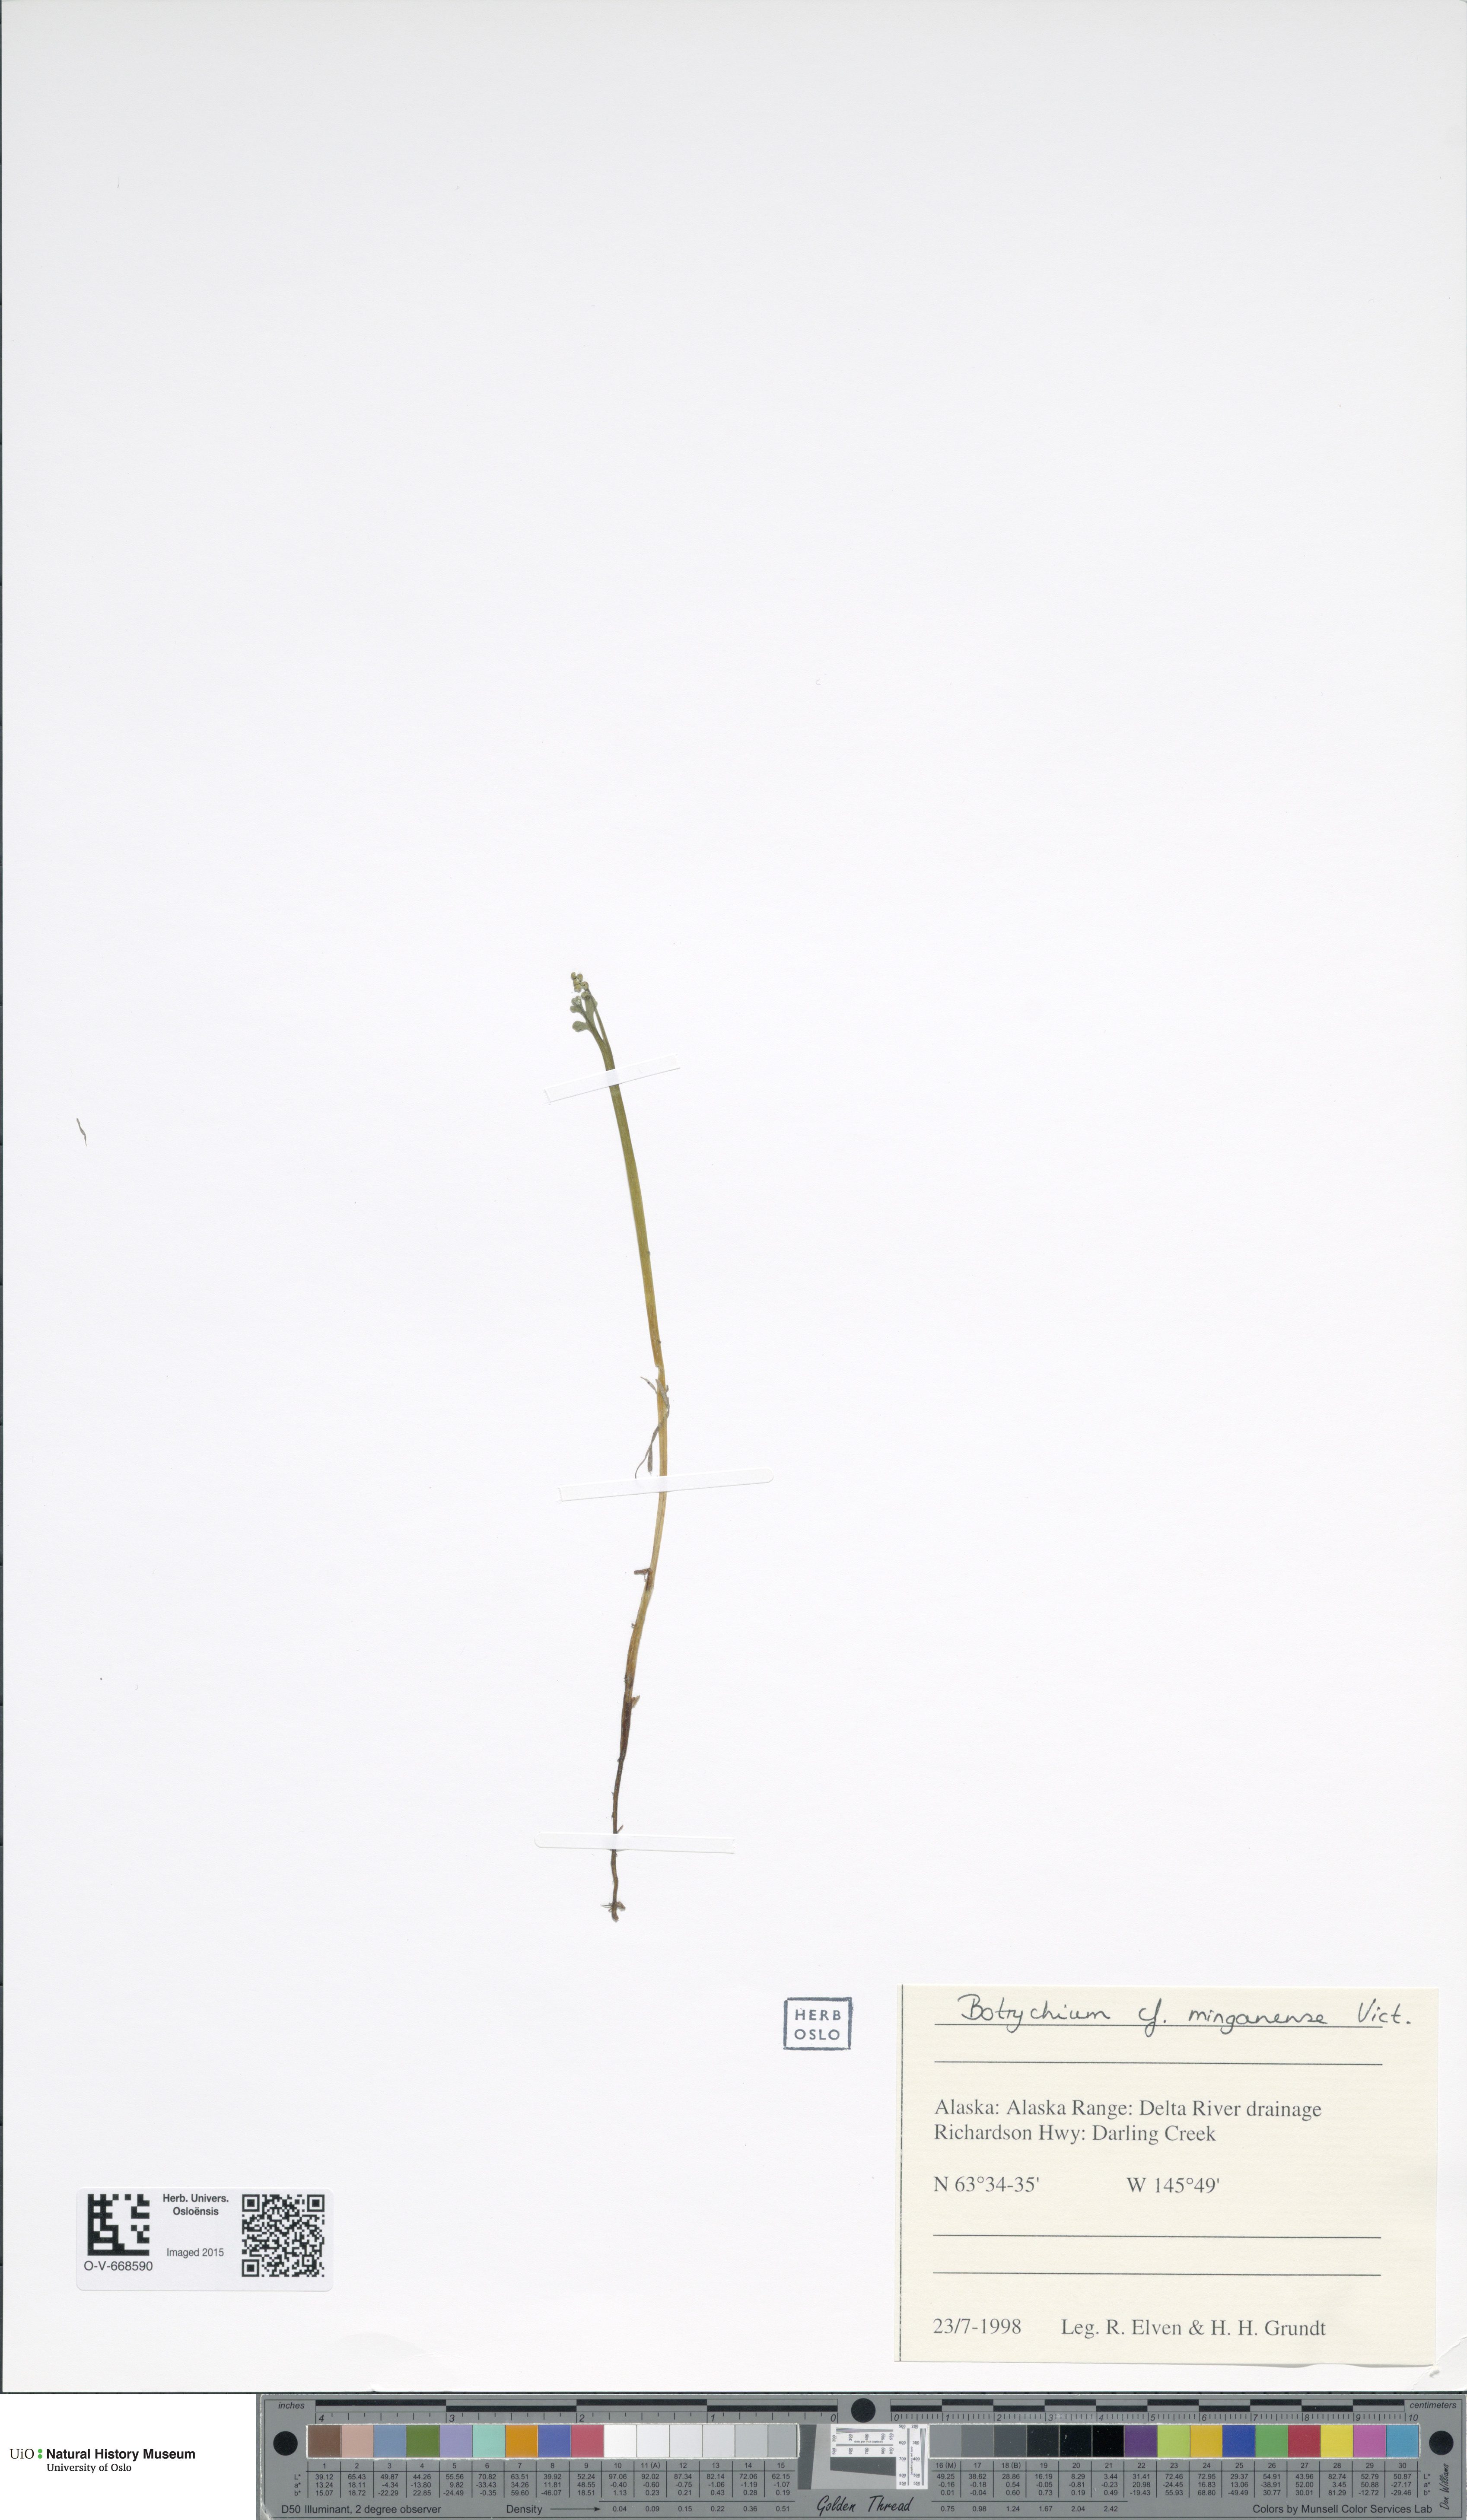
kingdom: Plantae
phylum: Tracheophyta
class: Polypodiopsida
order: Ophioglossales
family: Ophioglossaceae
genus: Botrychium
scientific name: Botrychium minganense
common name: Mingan grapefern
